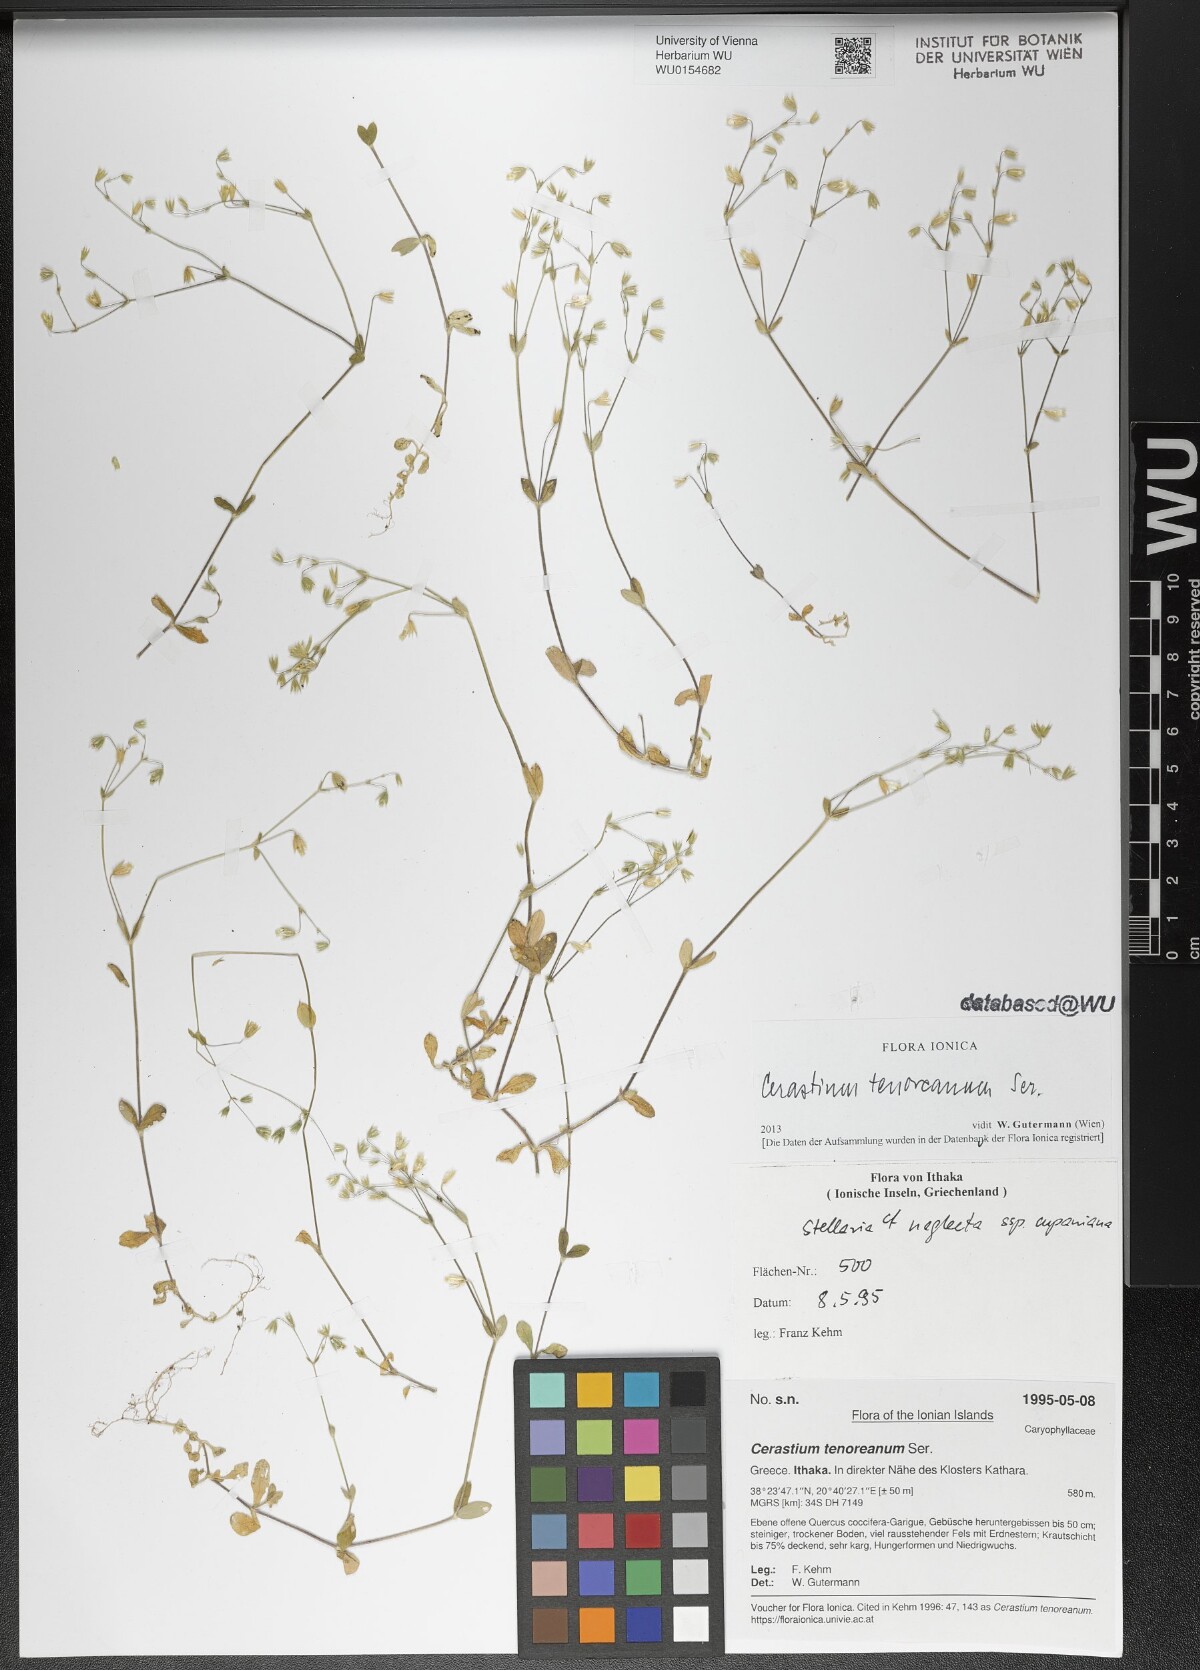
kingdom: Plantae
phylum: Tracheophyta
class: Magnoliopsida
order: Caryophyllales
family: Caryophyllaceae
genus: Cerastium
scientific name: Cerastium tenoreanum
